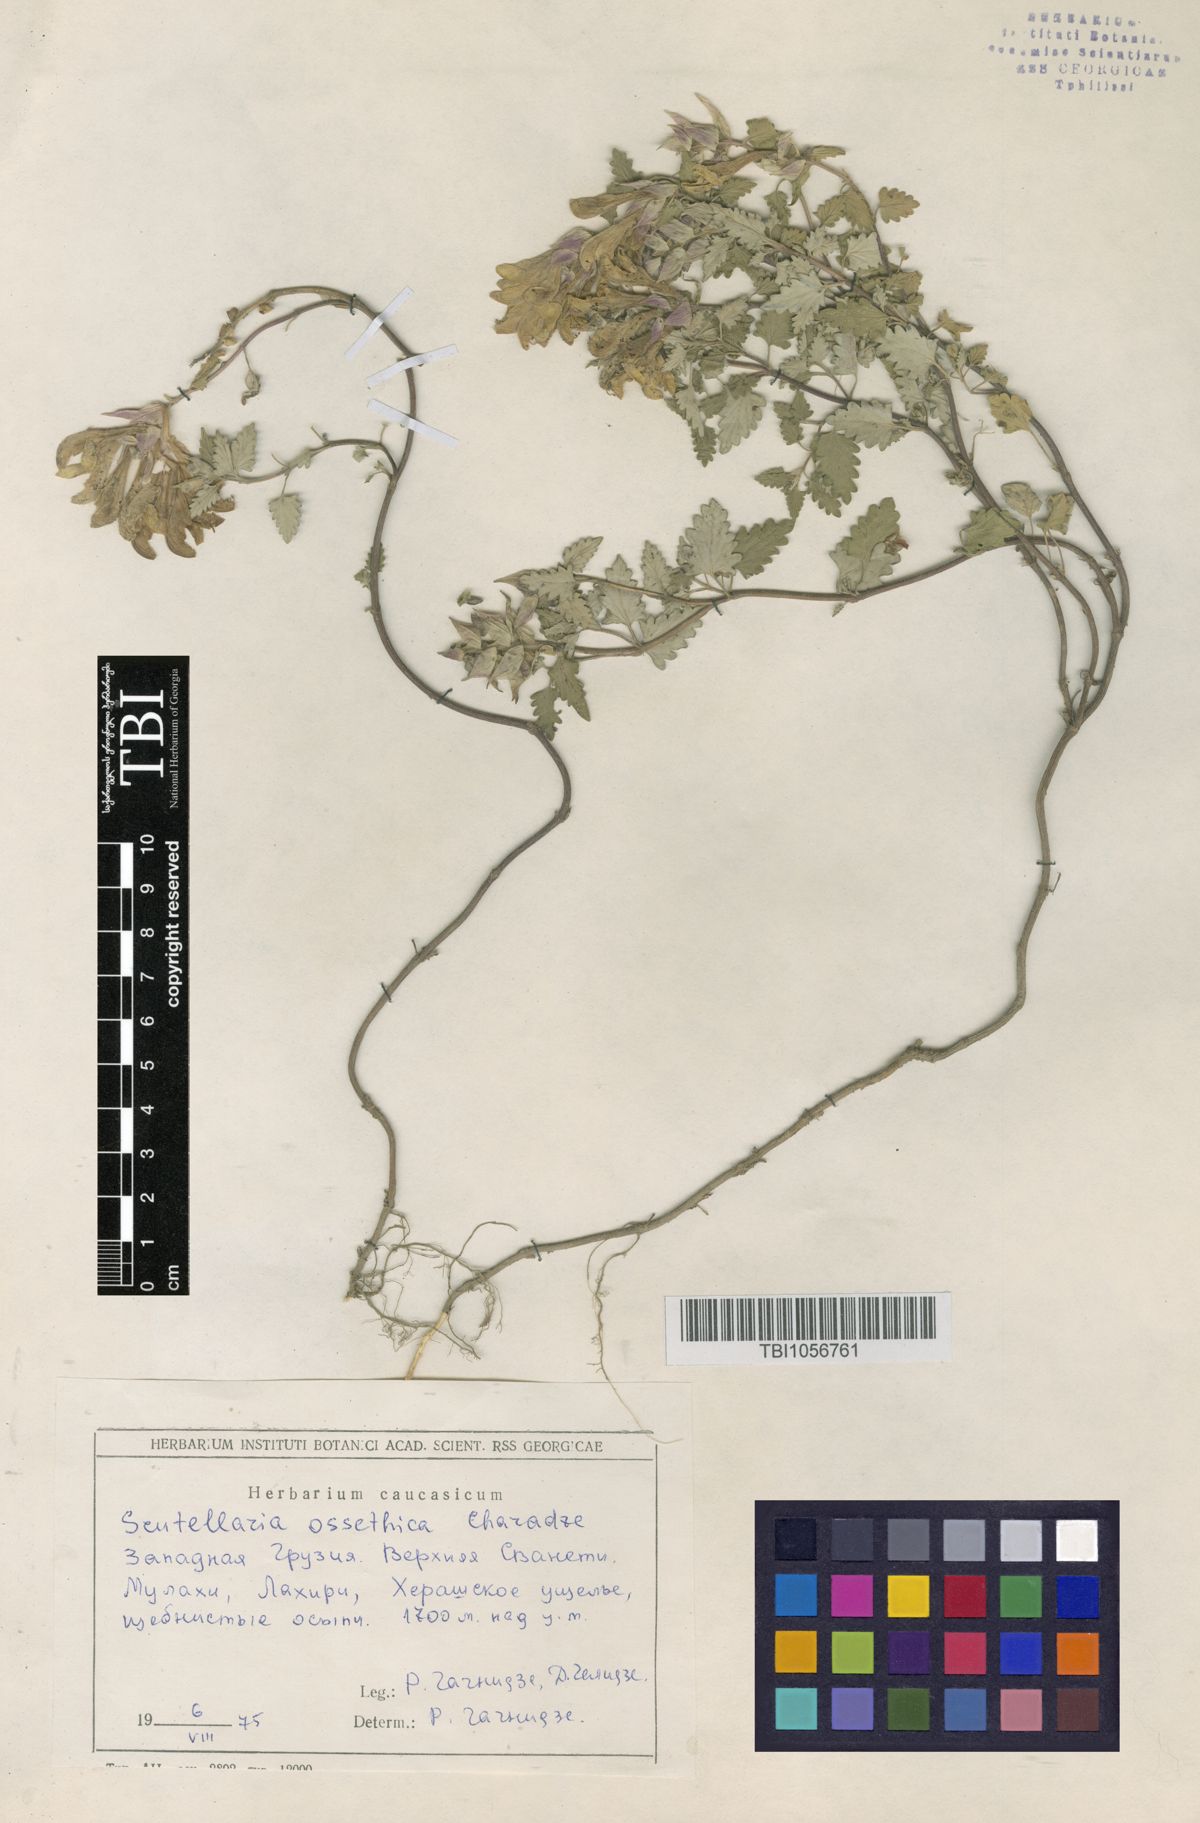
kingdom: Plantae
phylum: Tracheophyta
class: Magnoliopsida
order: Lamiales
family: Lamiaceae
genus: Scutellaria
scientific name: Scutellaria ossethica
